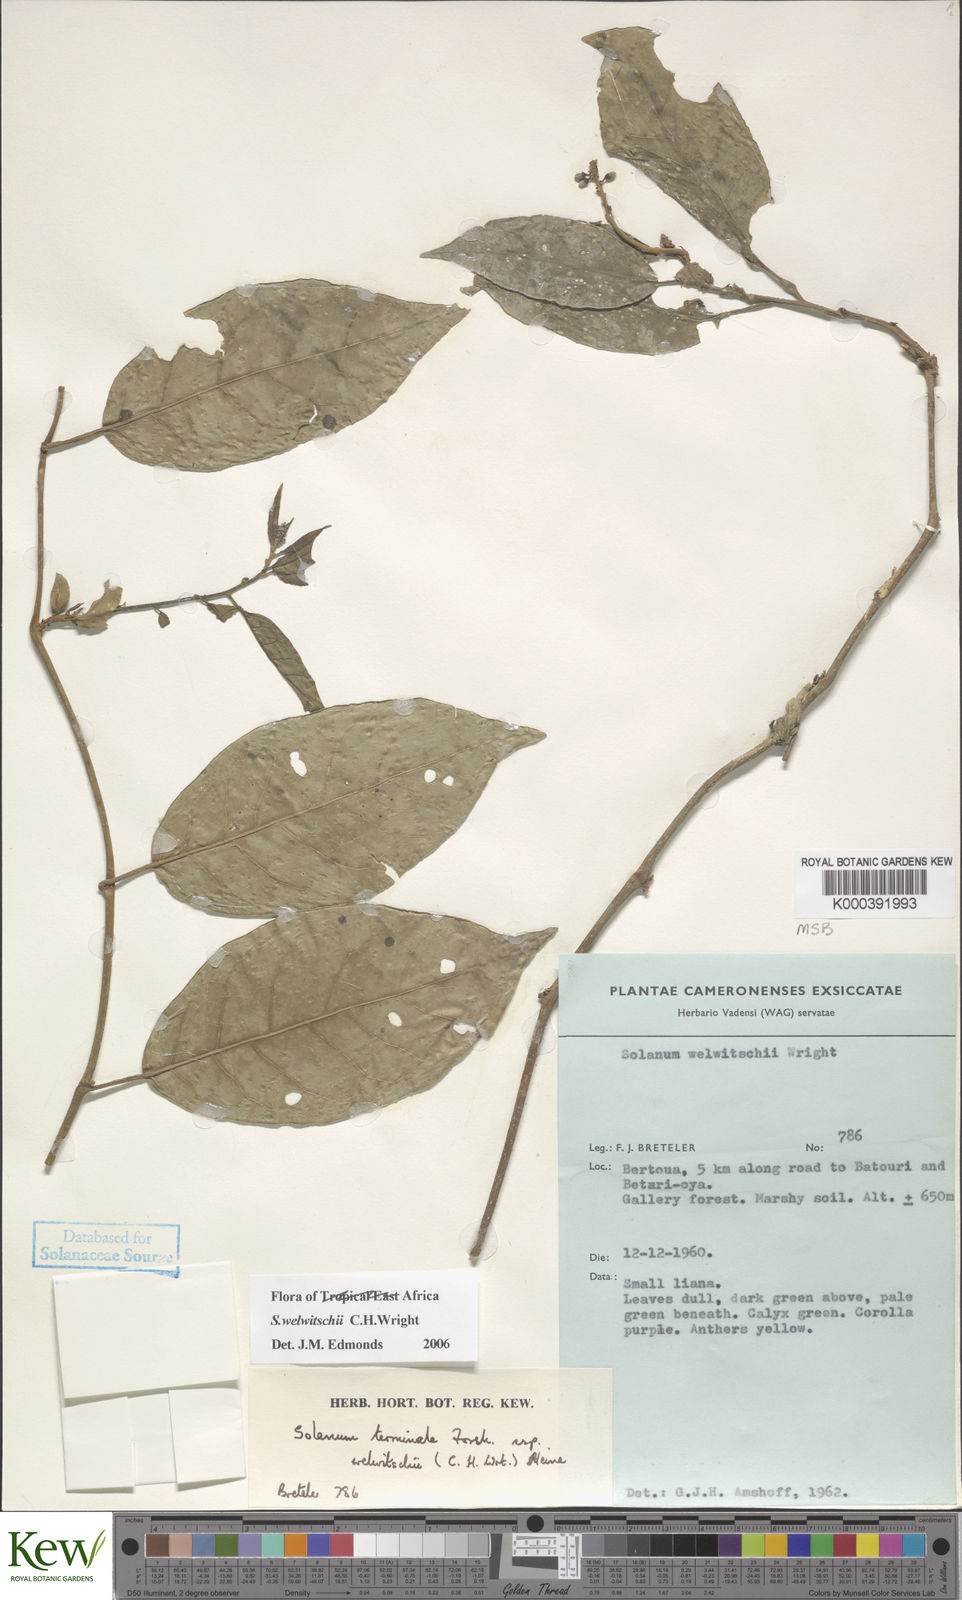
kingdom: Plantae
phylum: Tracheophyta
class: Magnoliopsida
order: Solanales
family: Solanaceae
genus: Solanum
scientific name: Solanum terminale
